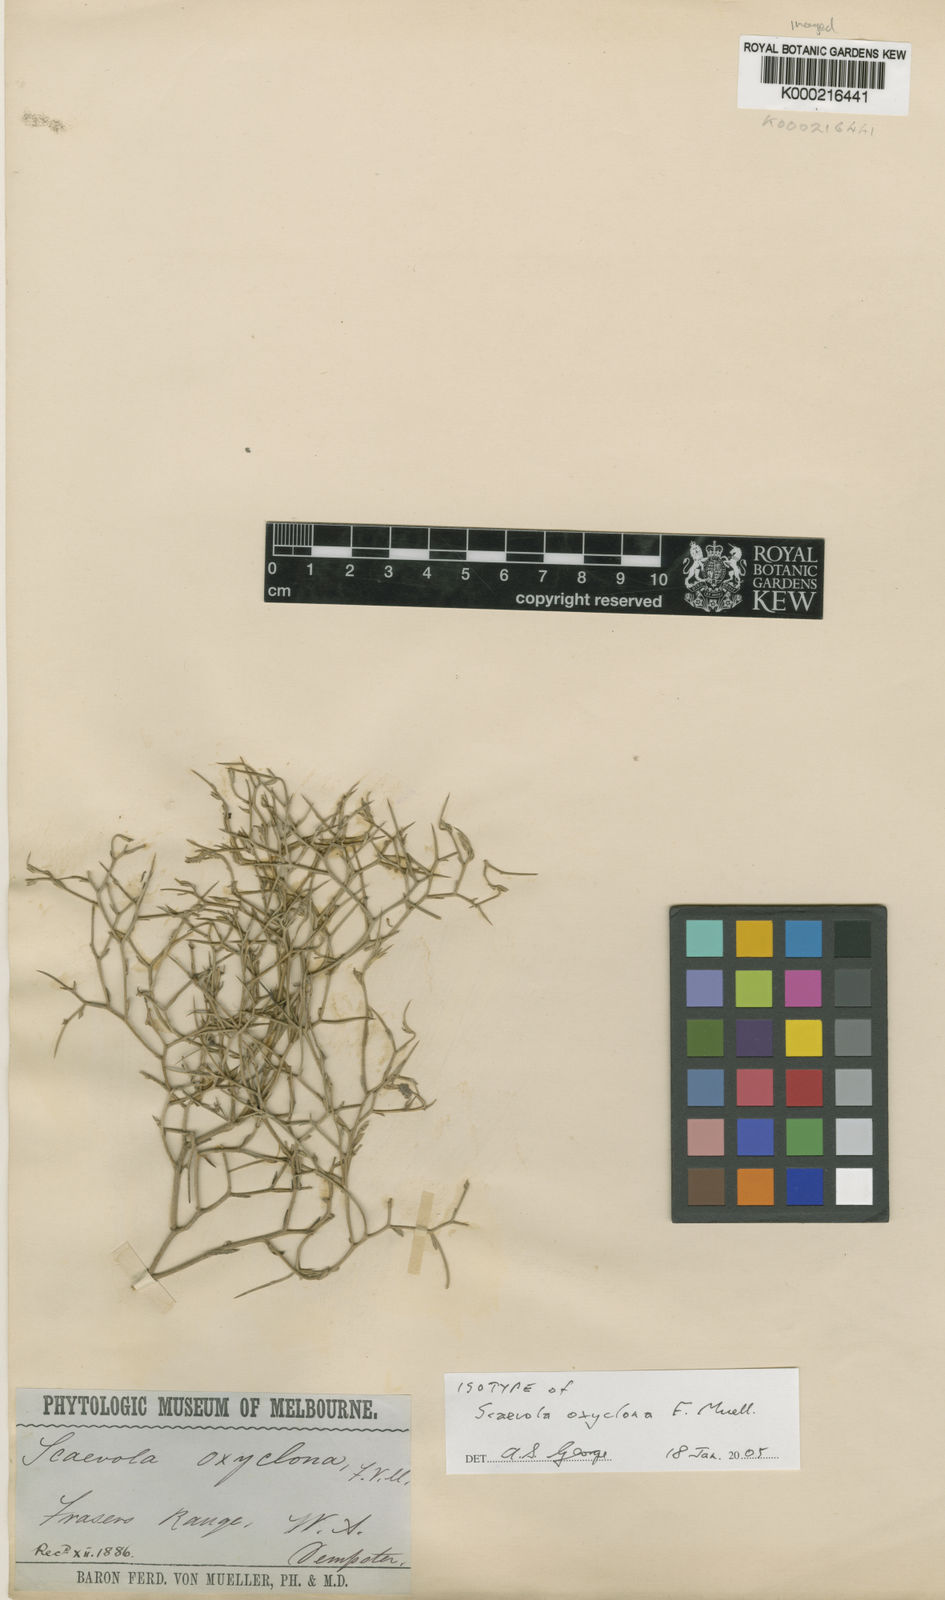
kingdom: Plantae
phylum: Tracheophyta
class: Magnoliopsida
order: Asterales
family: Goodeniaceae
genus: Scaevola
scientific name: Scaevola oxyclona
